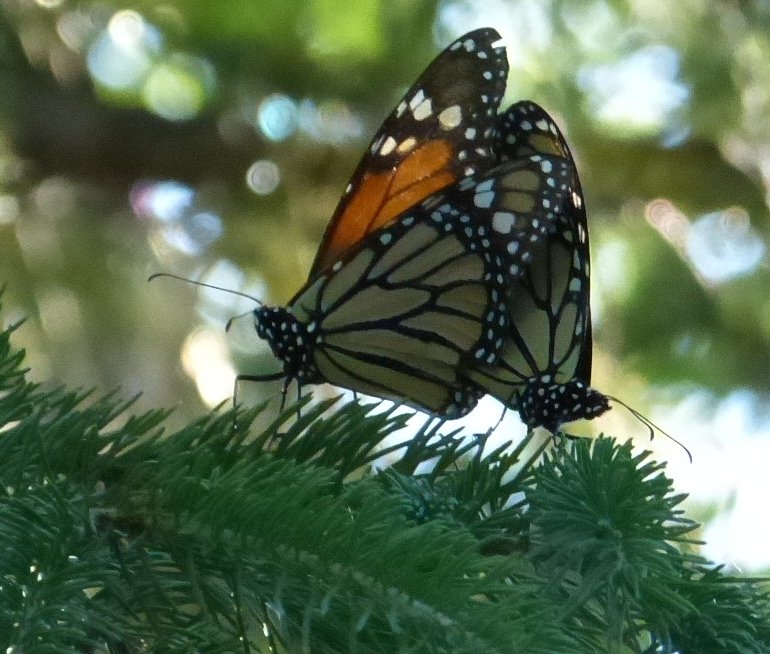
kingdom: Animalia
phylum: Arthropoda
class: Insecta
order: Lepidoptera
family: Nymphalidae
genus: Danaus
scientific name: Danaus plexippus
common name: Monarch
